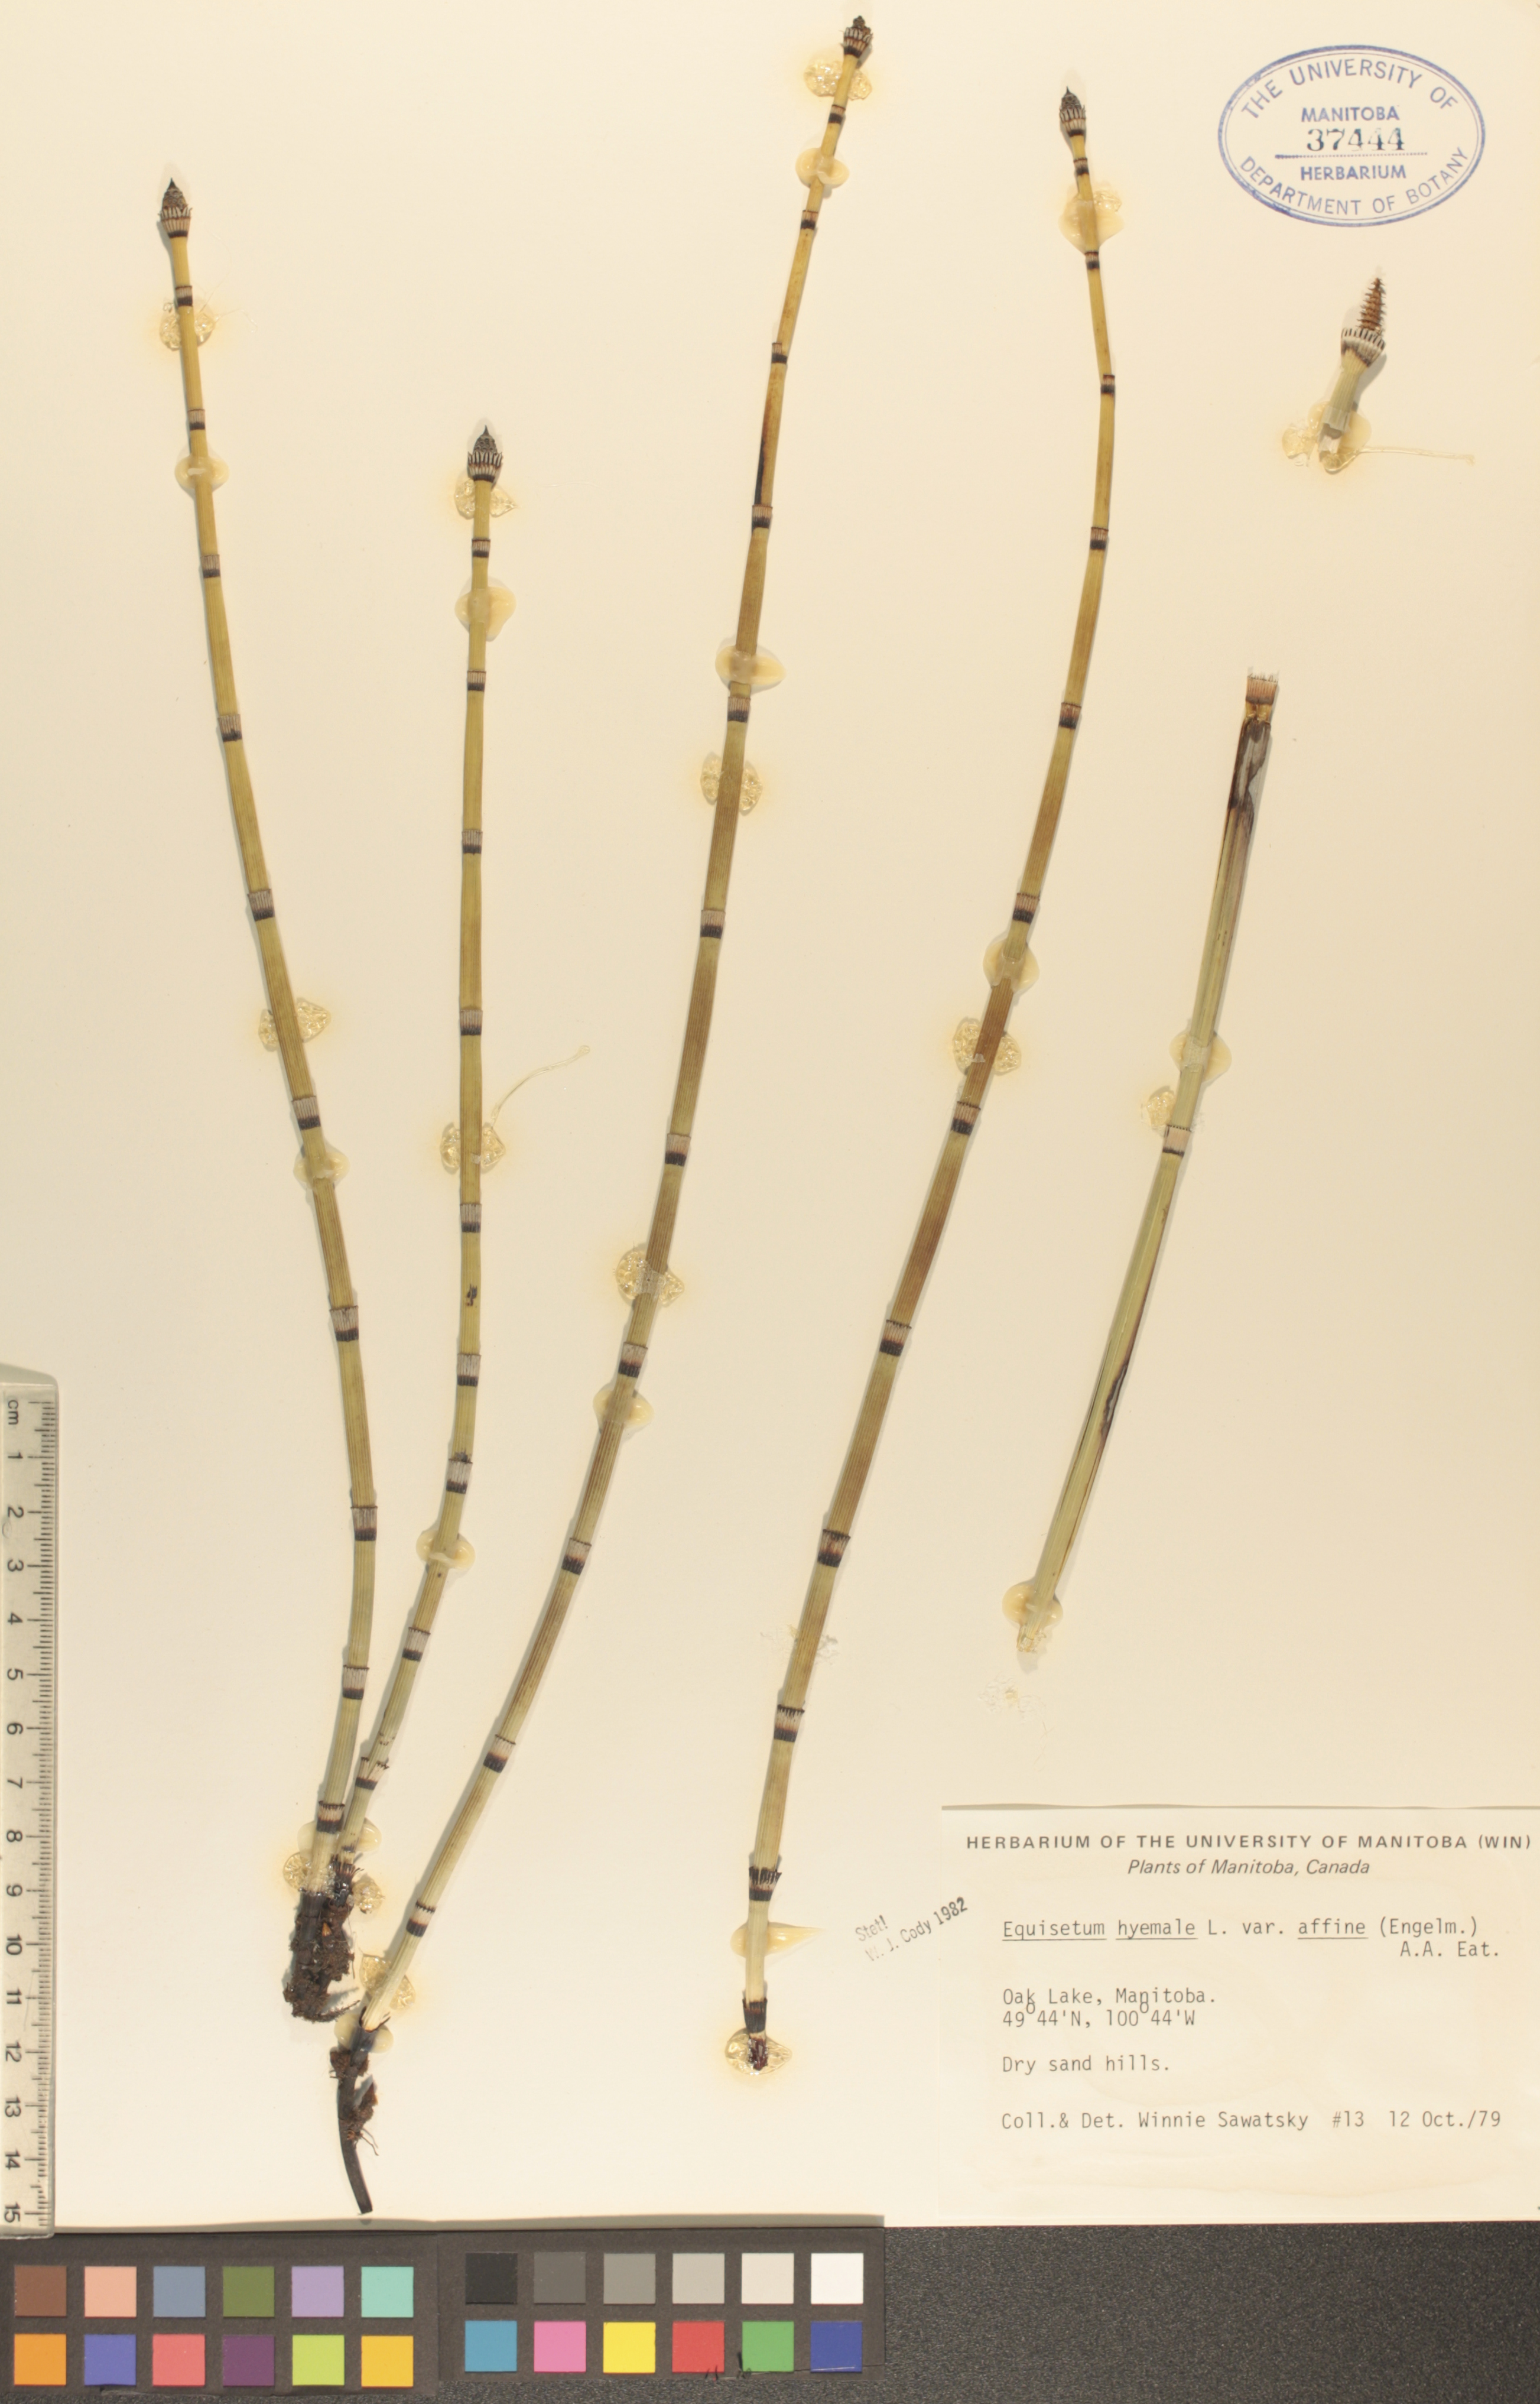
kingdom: Plantae
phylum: Tracheophyta
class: Polypodiopsida
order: Equisetales
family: Equisetaceae
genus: Equisetum
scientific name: Equisetum praealtum
